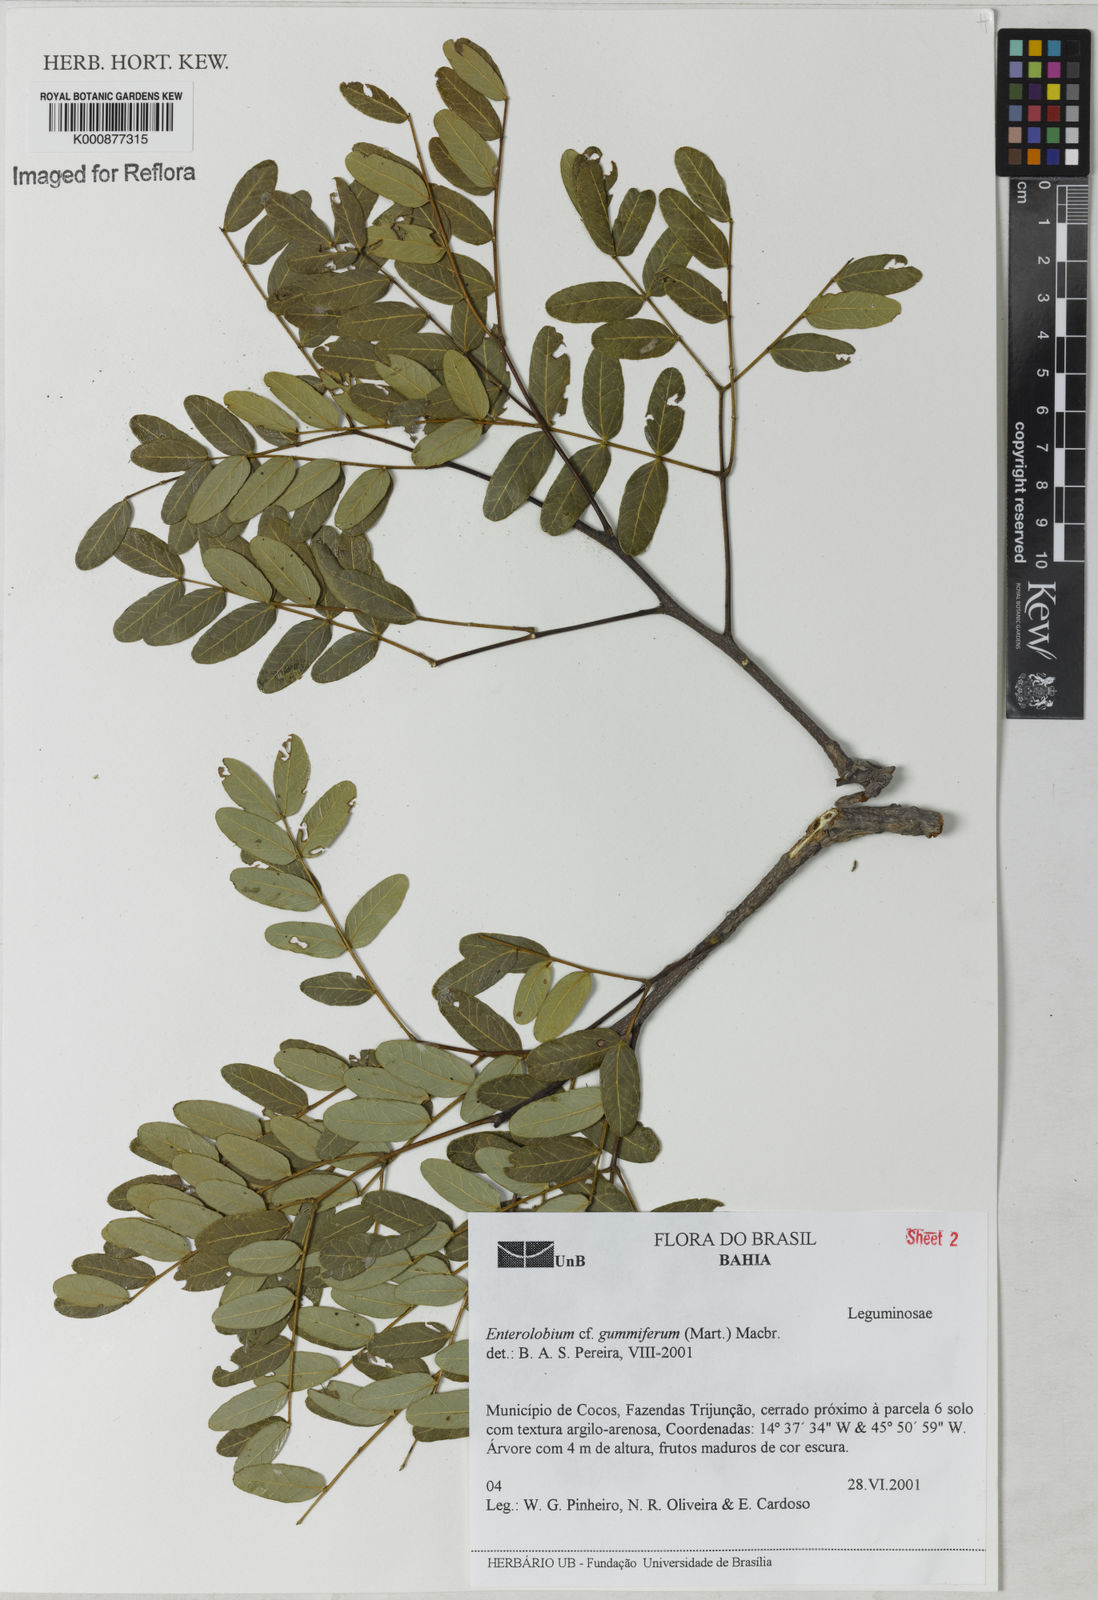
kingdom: Plantae
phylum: Tracheophyta
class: Magnoliopsida
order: Fabales
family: Fabaceae
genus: Enterolobium
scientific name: Enterolobium gummiferum
